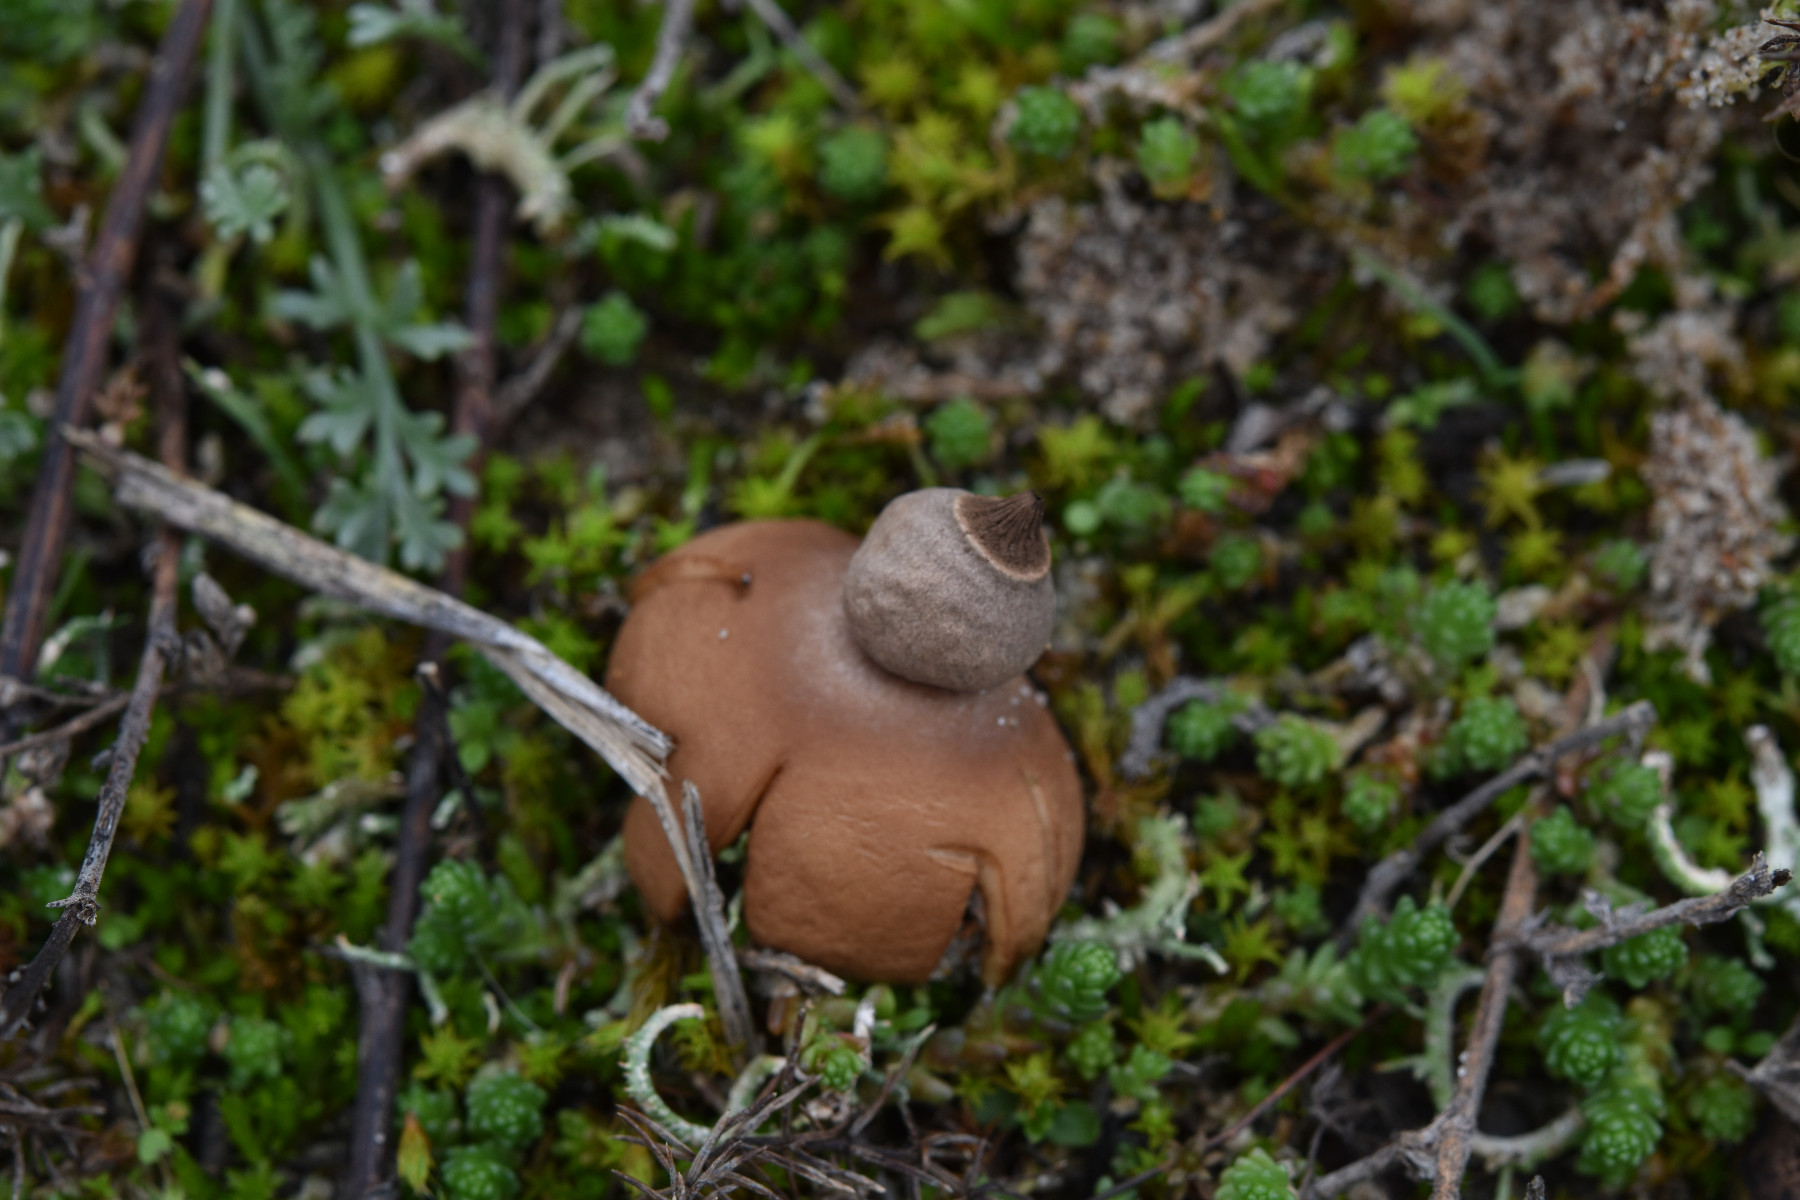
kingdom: Fungi
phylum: Basidiomycota
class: Agaricomycetes
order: Geastrales
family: Geastraceae
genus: Geastrum
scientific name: Geastrum striatum
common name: dværg-stjernebold
